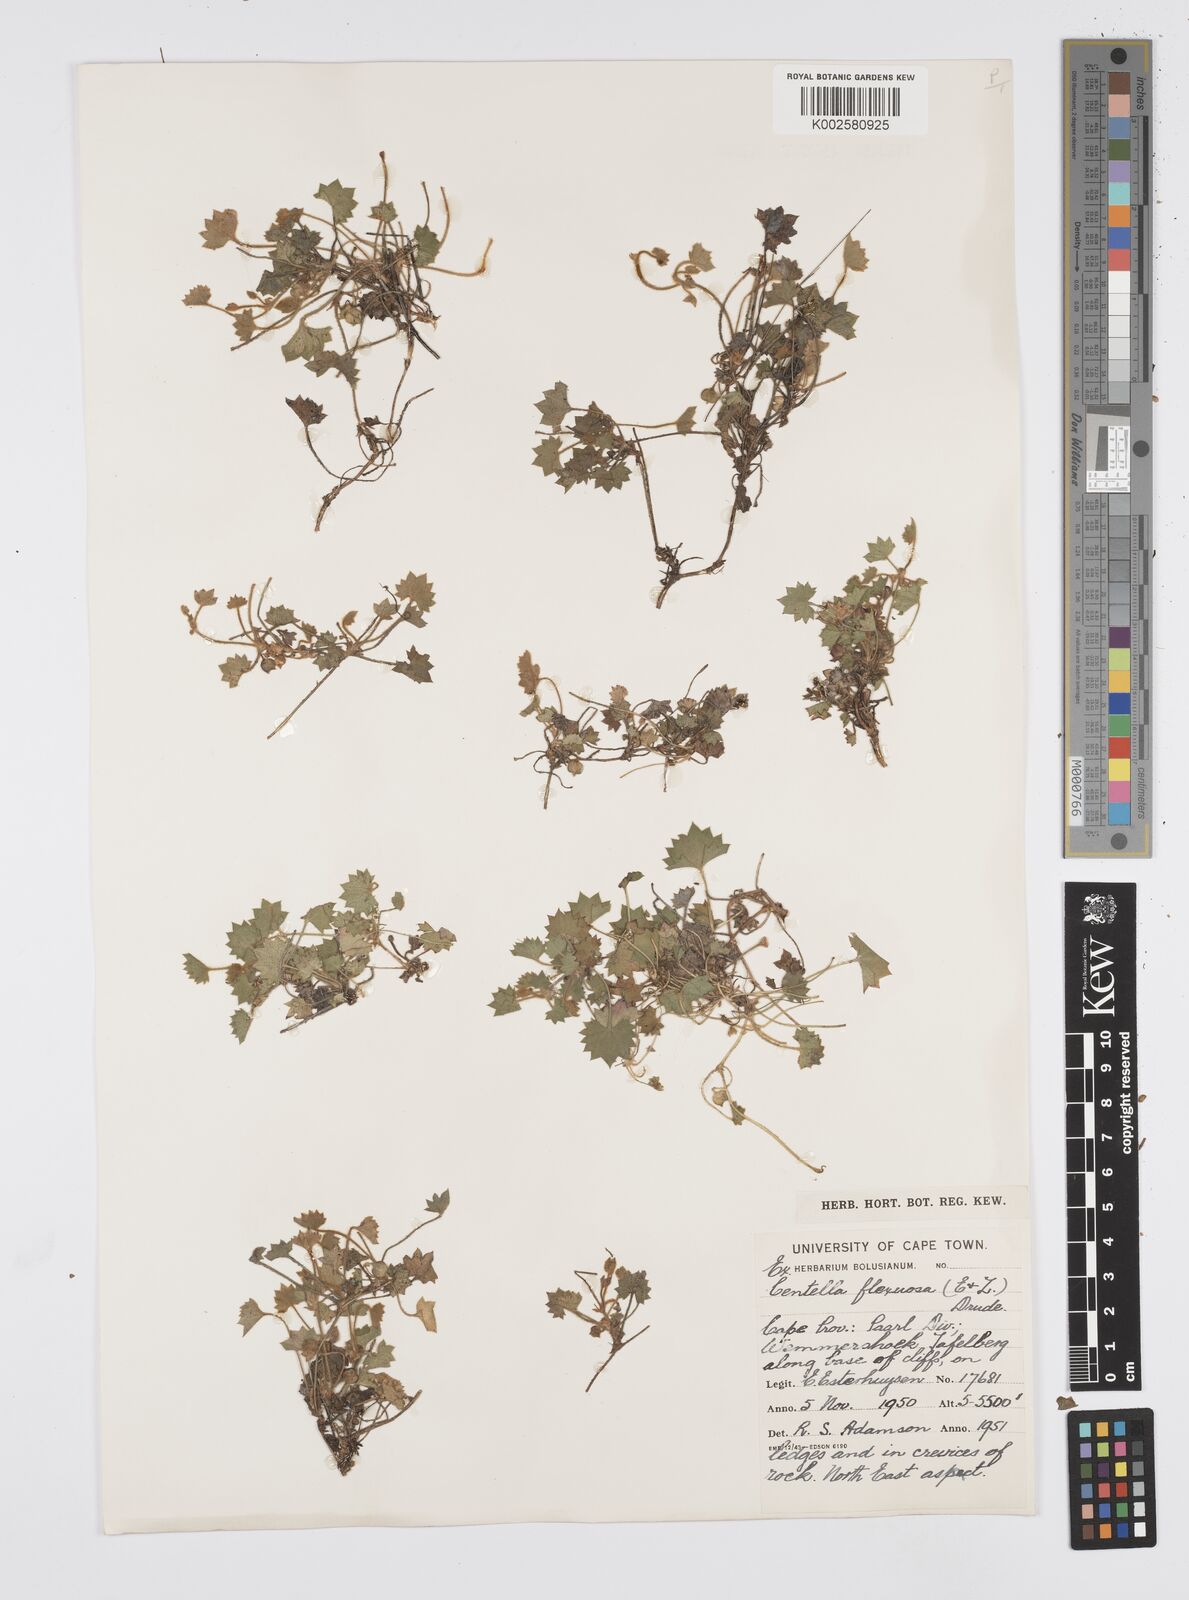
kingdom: Plantae
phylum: Tracheophyta
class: Magnoliopsida
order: Apiales
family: Apiaceae
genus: Centella
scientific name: Centella flexuosa
